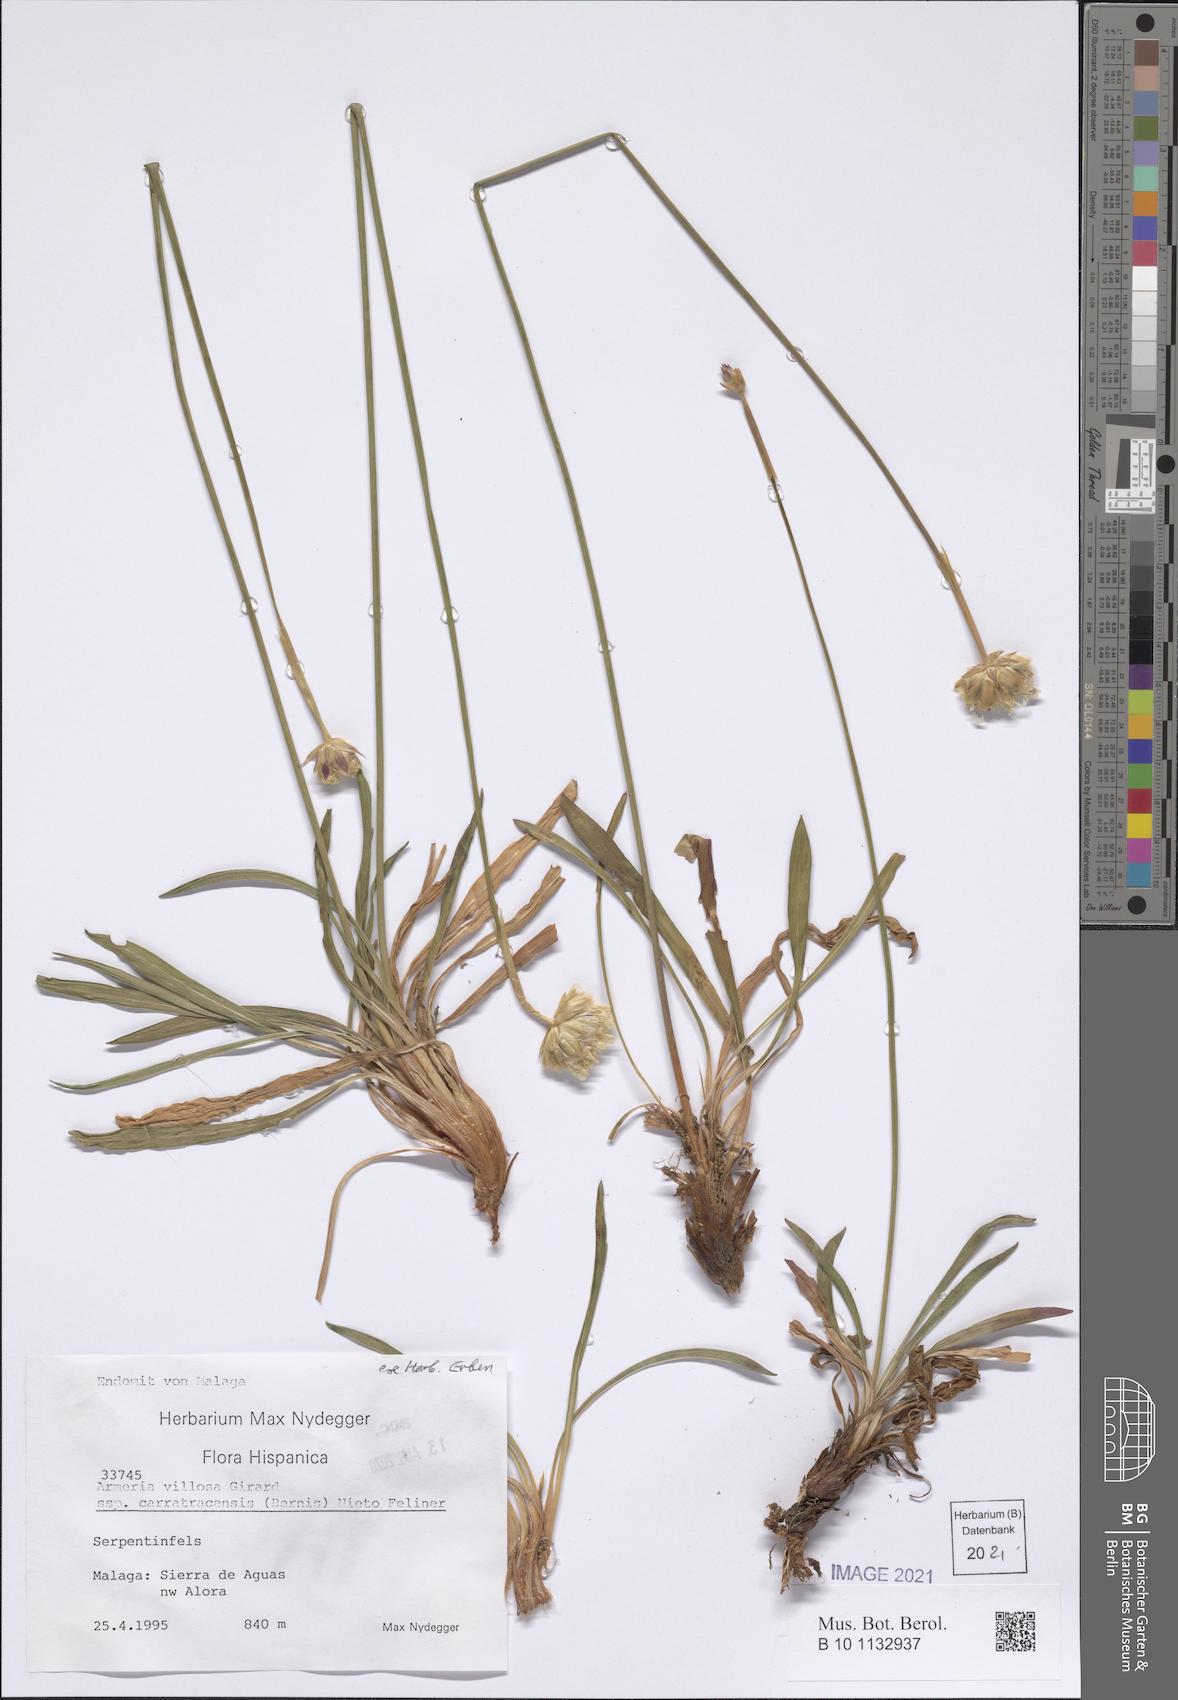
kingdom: Plantae
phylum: Tracheophyta
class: Magnoliopsida
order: Caryophyllales
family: Plumbaginaceae
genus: Armeria
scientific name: Armeria villosa
